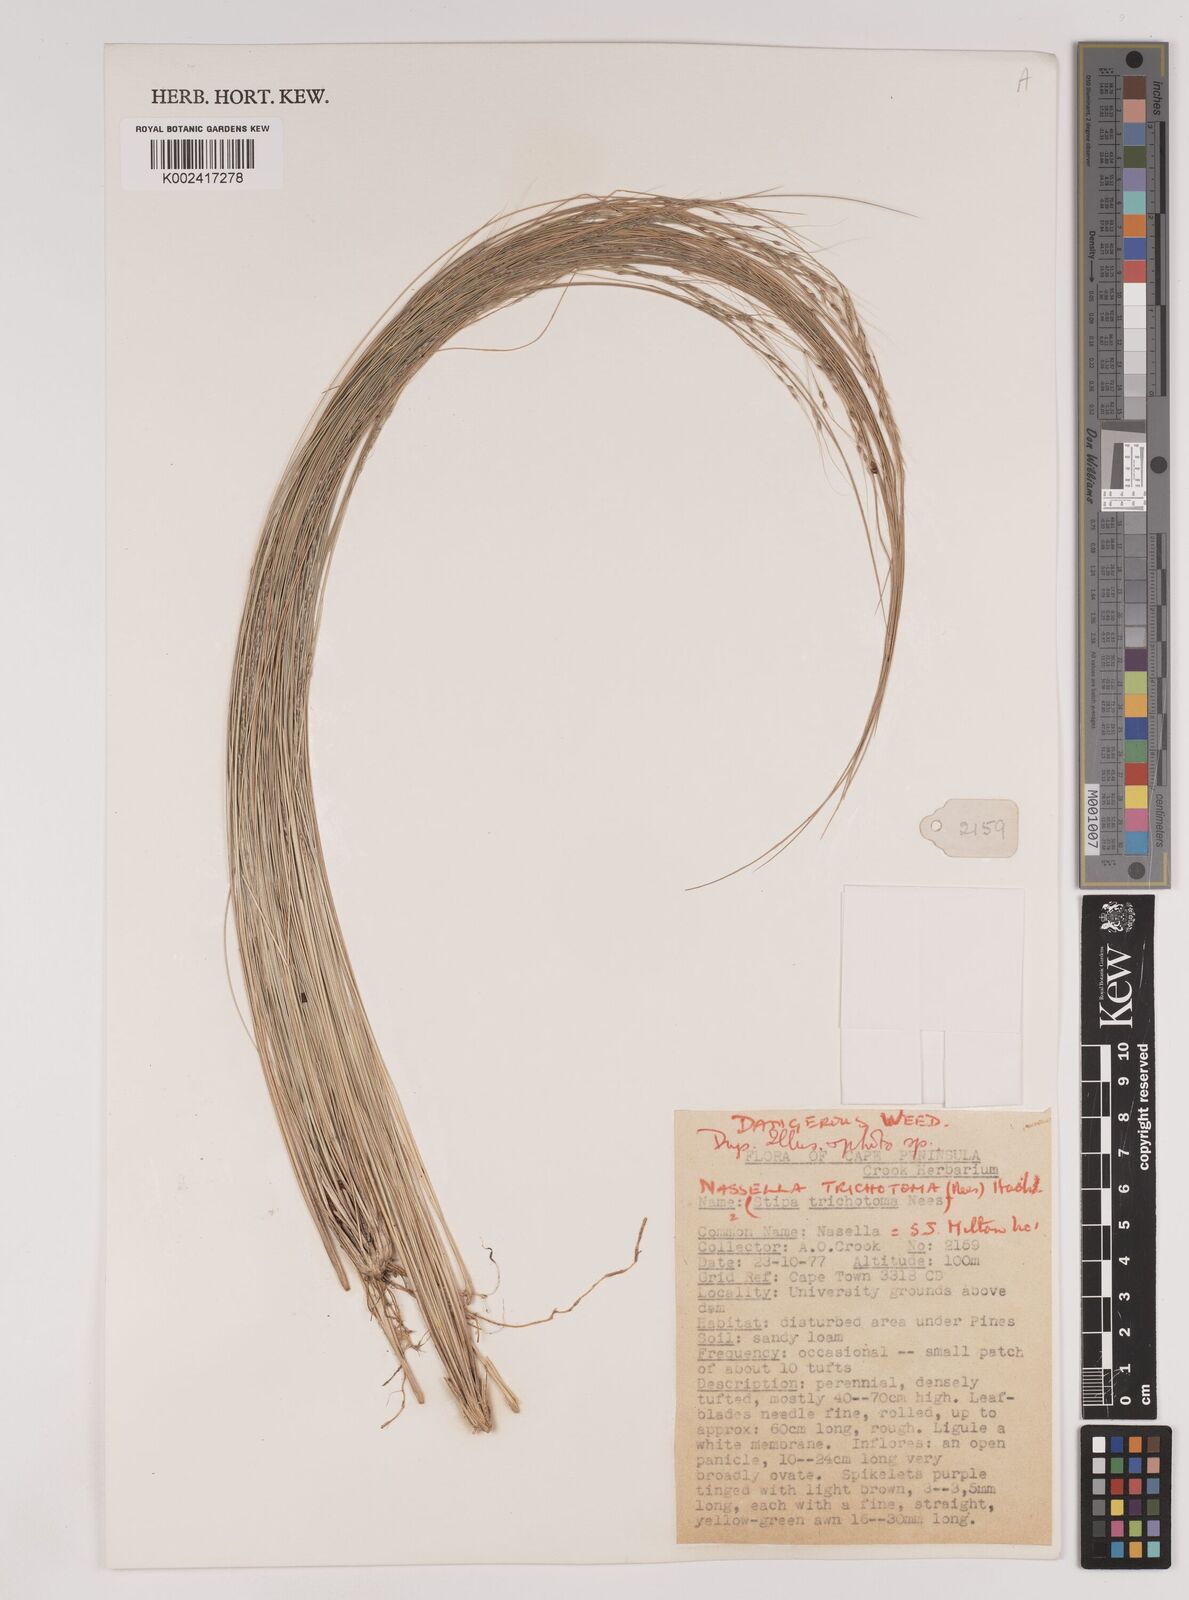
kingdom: Plantae
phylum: Tracheophyta
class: Liliopsida
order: Poales
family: Poaceae
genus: Nassella
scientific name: Nassella trichotoma
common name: Serrated tussock grass
